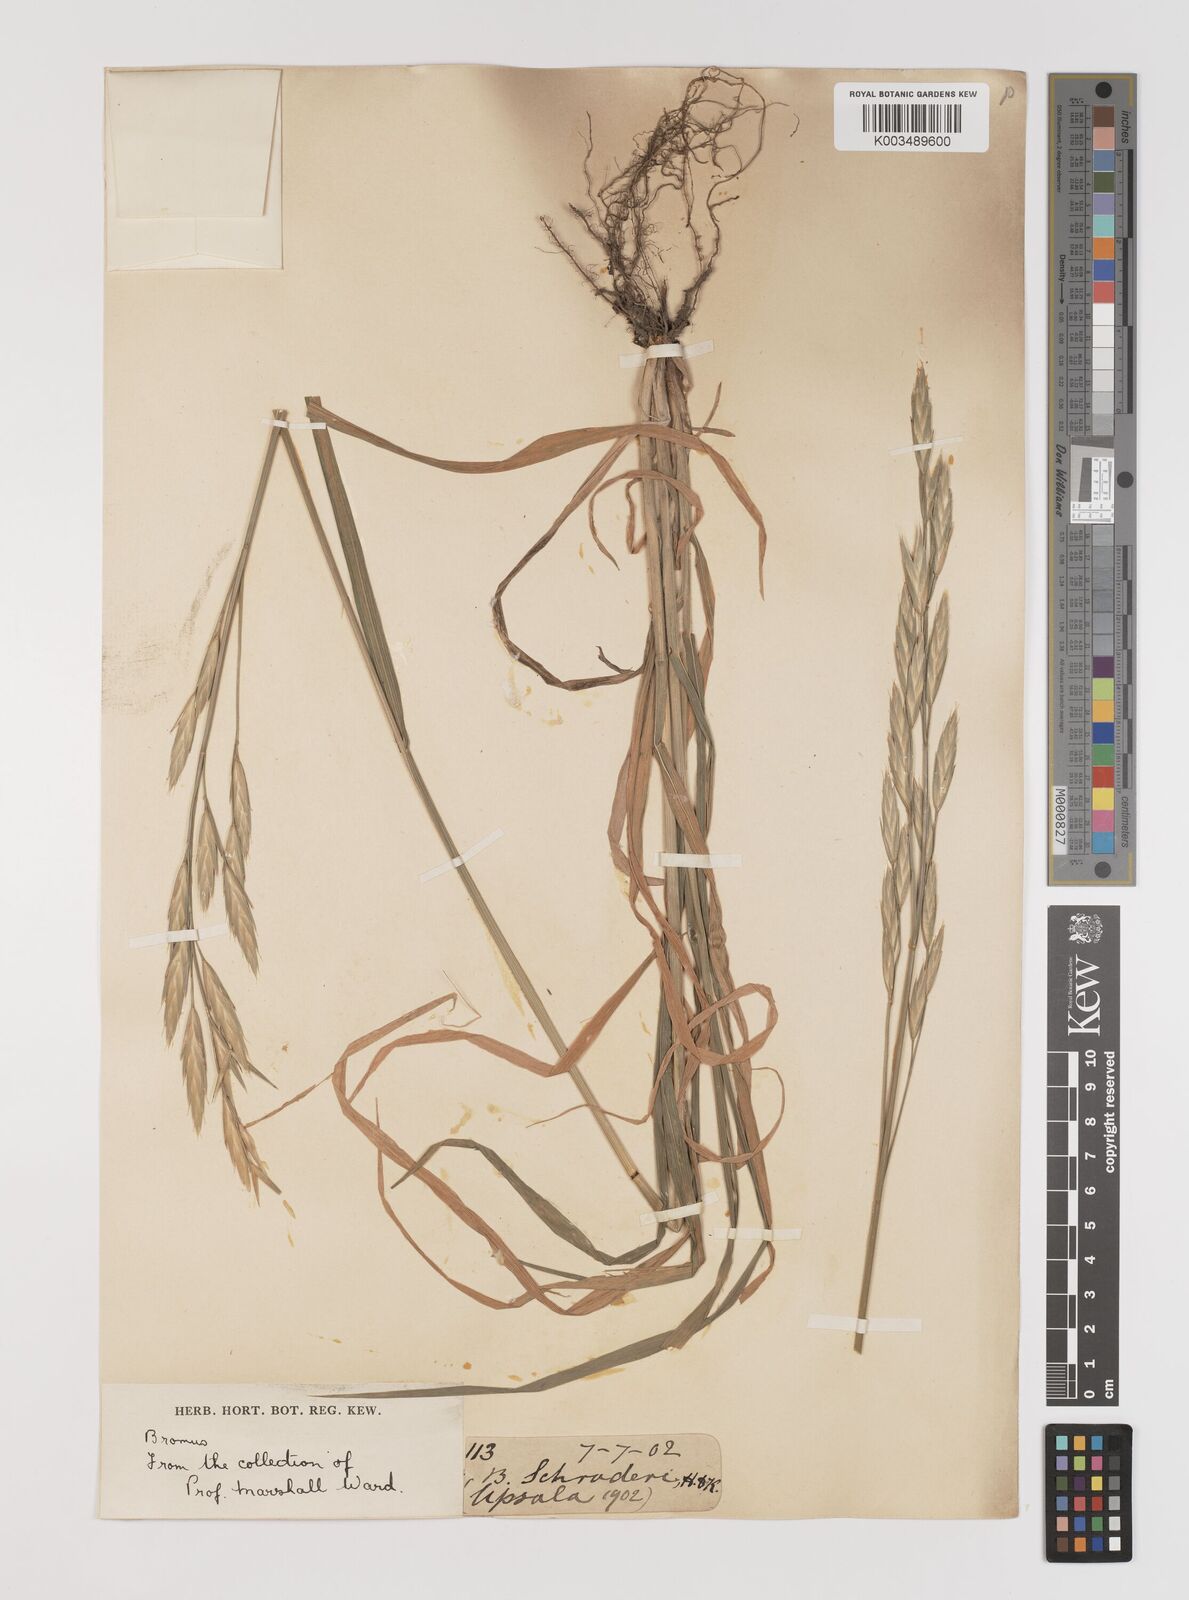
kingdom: Plantae
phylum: Tracheophyta
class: Liliopsida
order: Poales
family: Poaceae
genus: Bromus
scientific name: Bromus catharticus
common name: Rescuegrass
